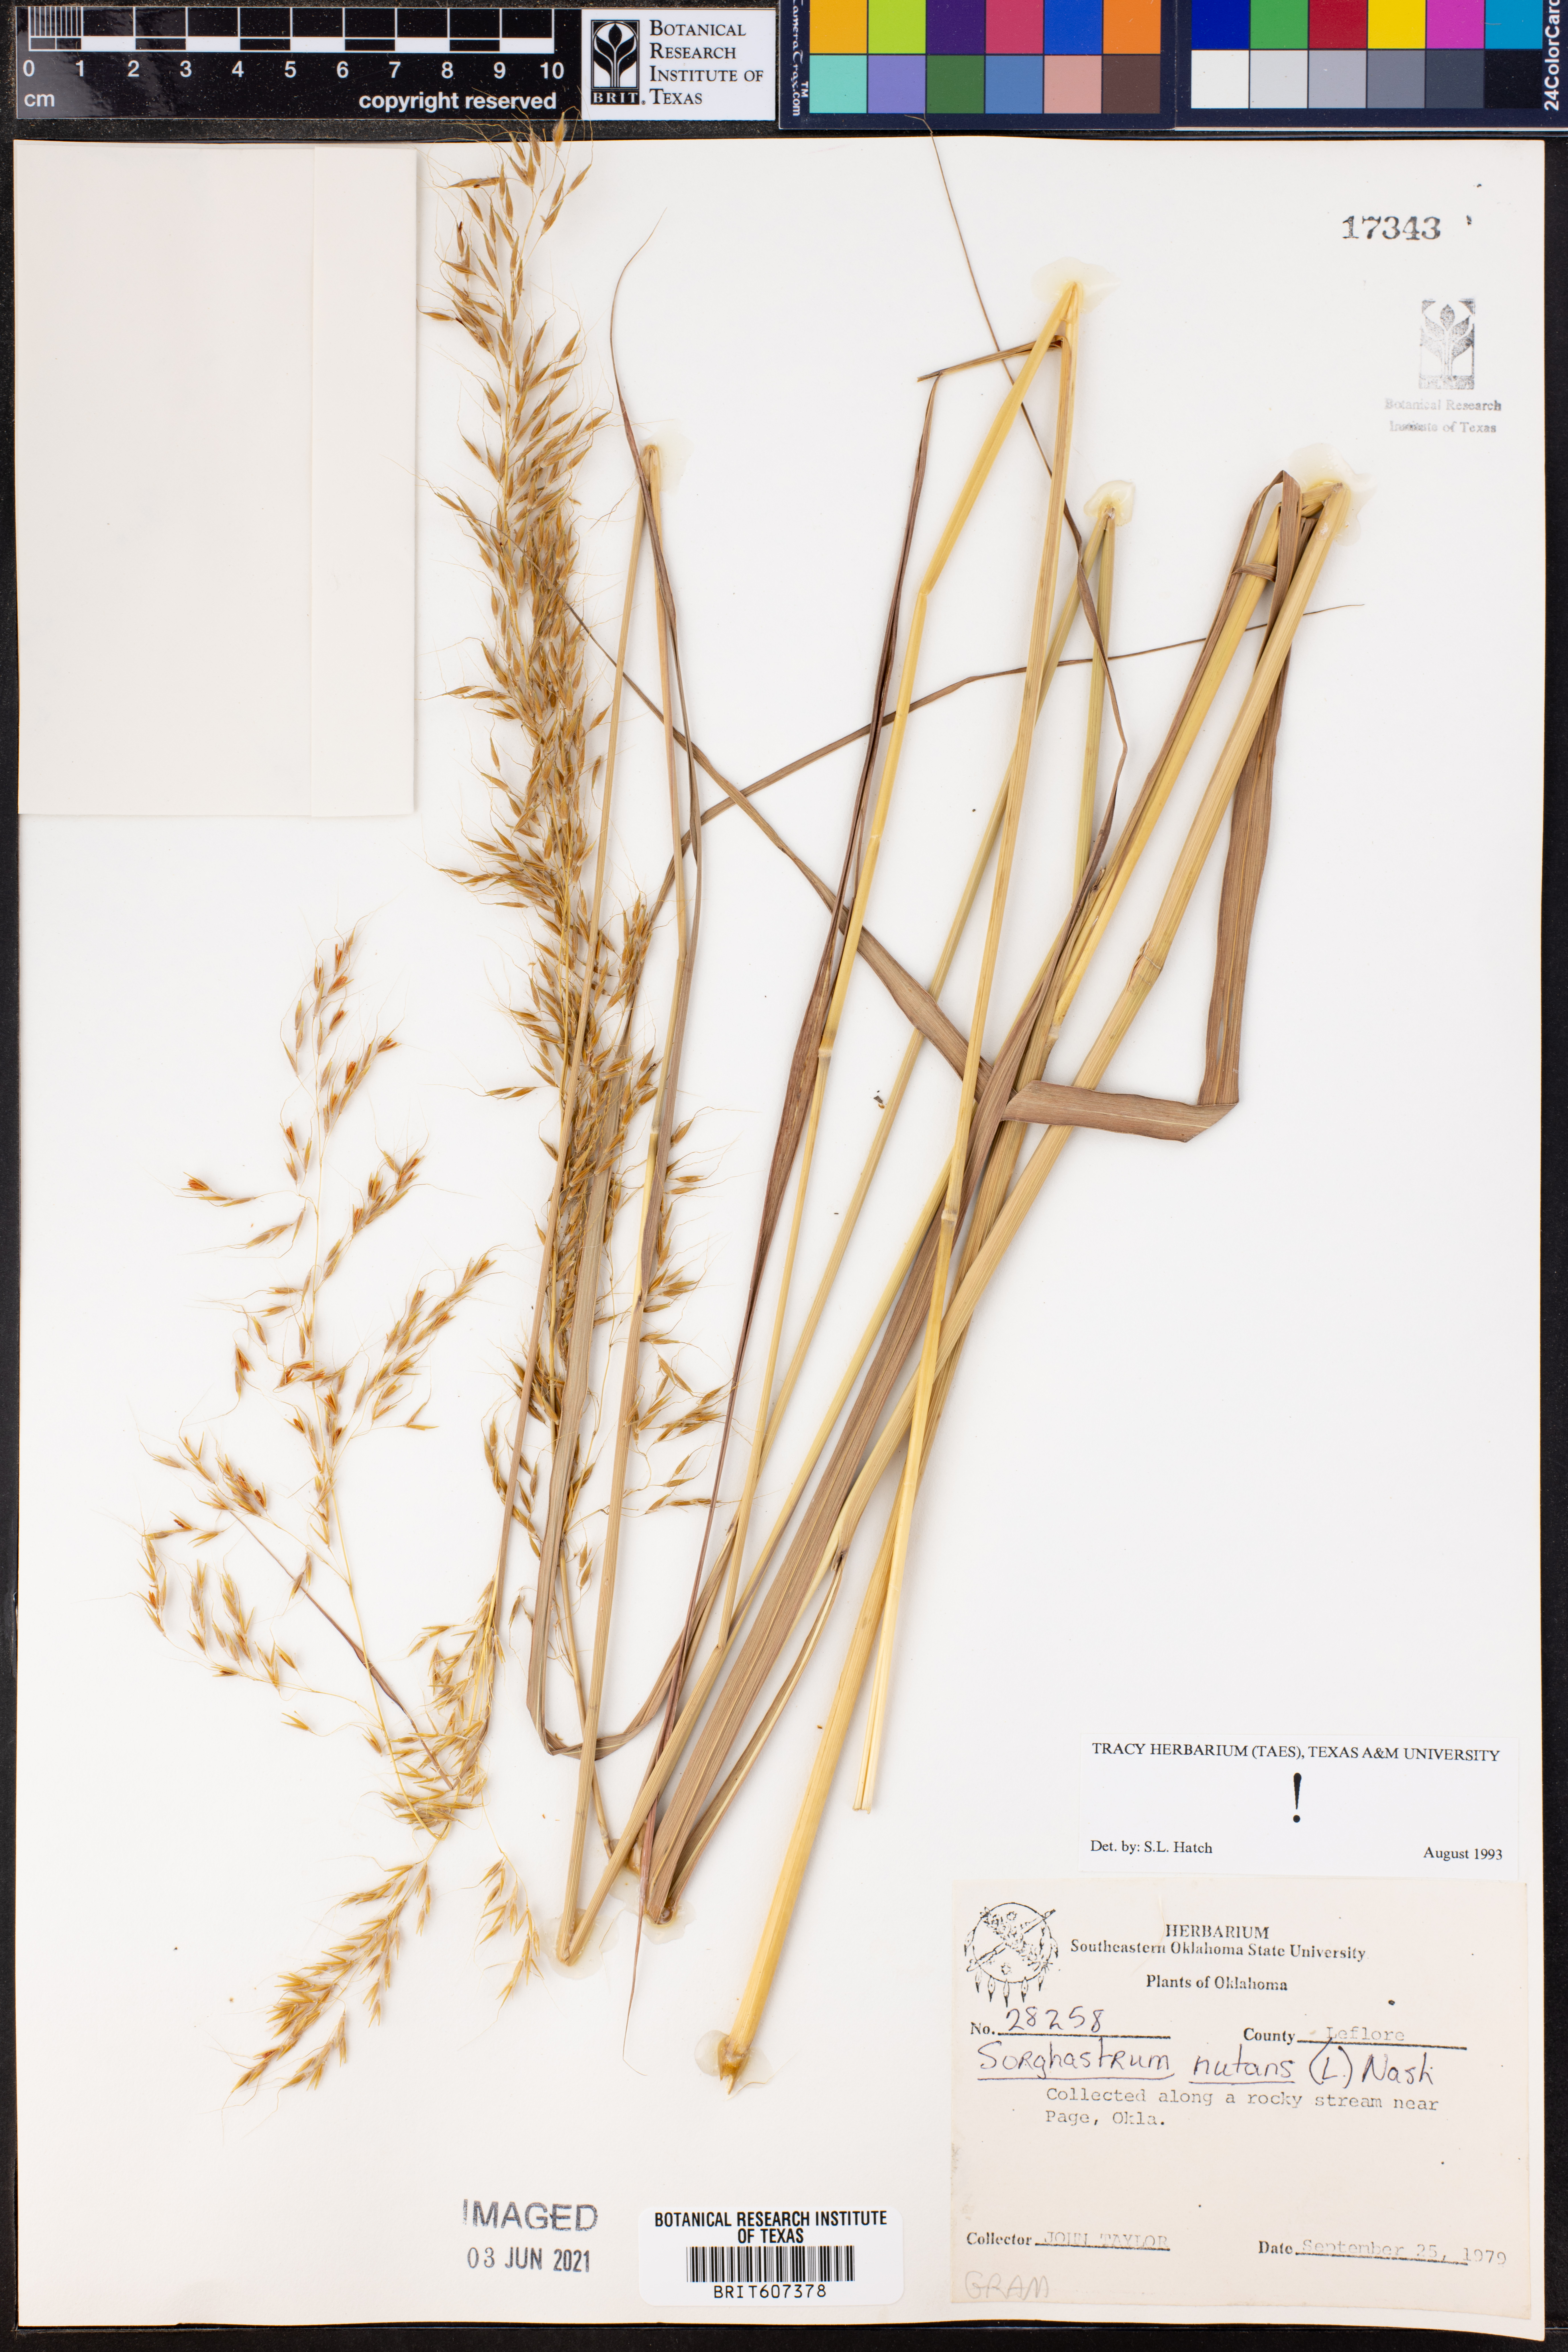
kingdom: Plantae
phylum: Tracheophyta
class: Liliopsida
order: Poales
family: Poaceae
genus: Sorghastrum
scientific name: Sorghastrum nutans
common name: Indian grass
